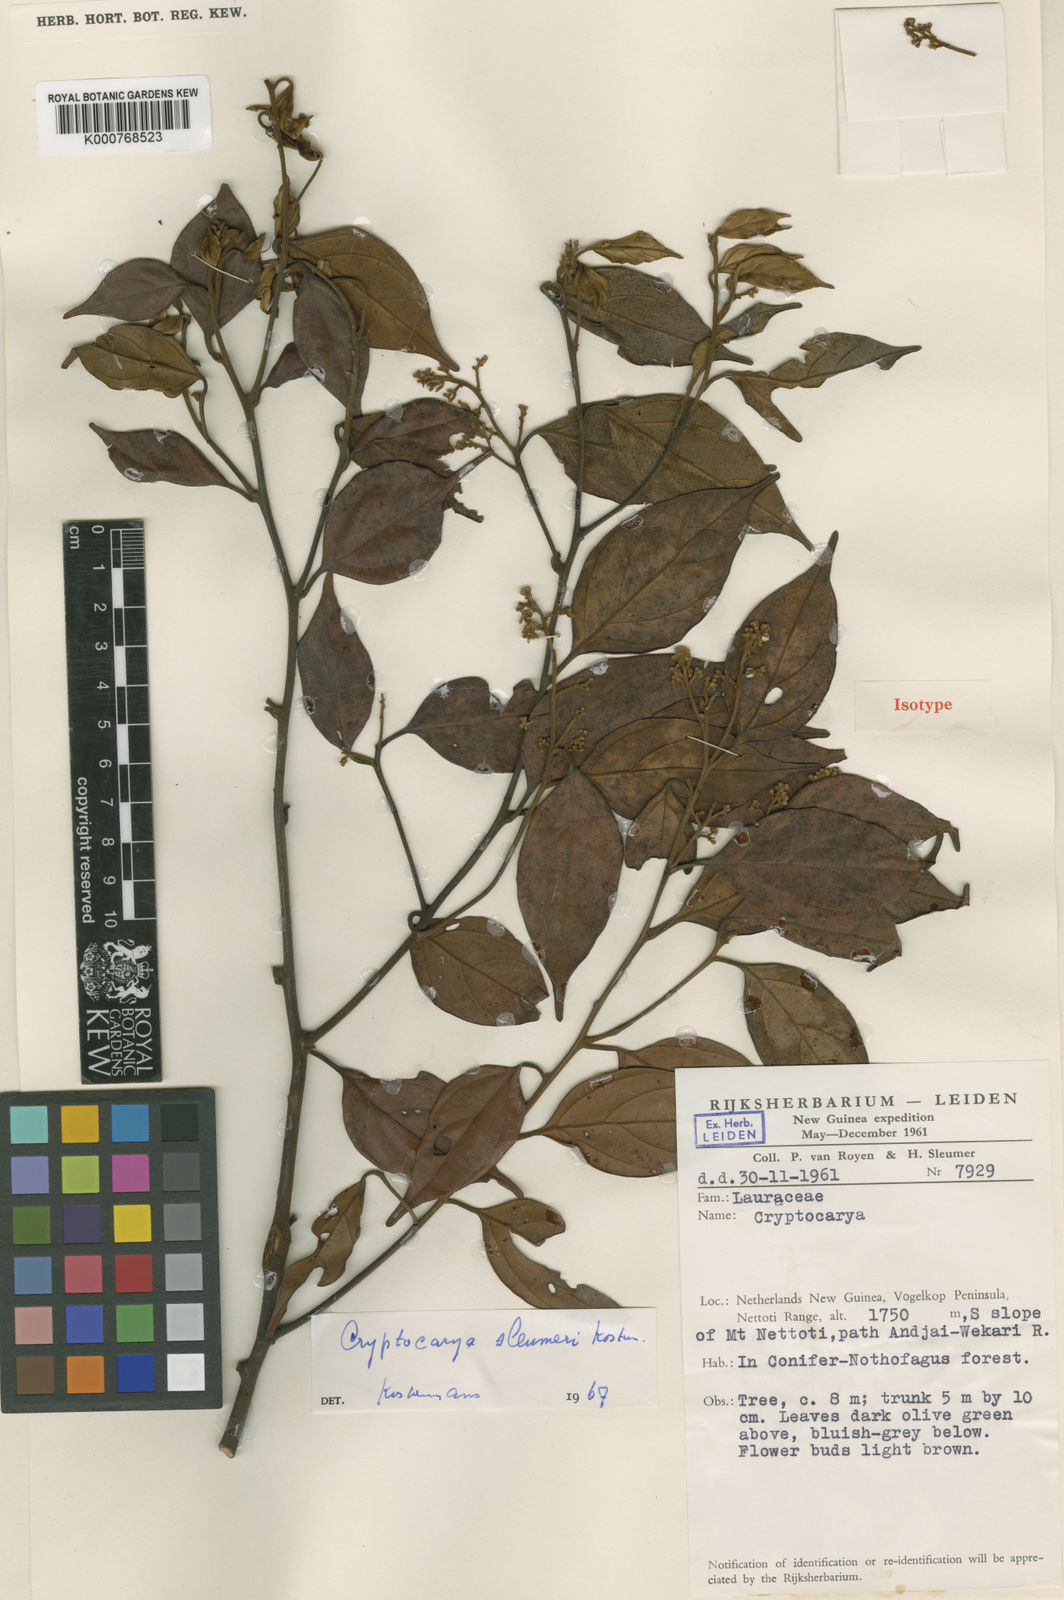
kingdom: Plantae
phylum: Tracheophyta
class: Magnoliopsida
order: Laurales
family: Lauraceae
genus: Cryptocarya
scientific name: Cryptocarya sleumeri
